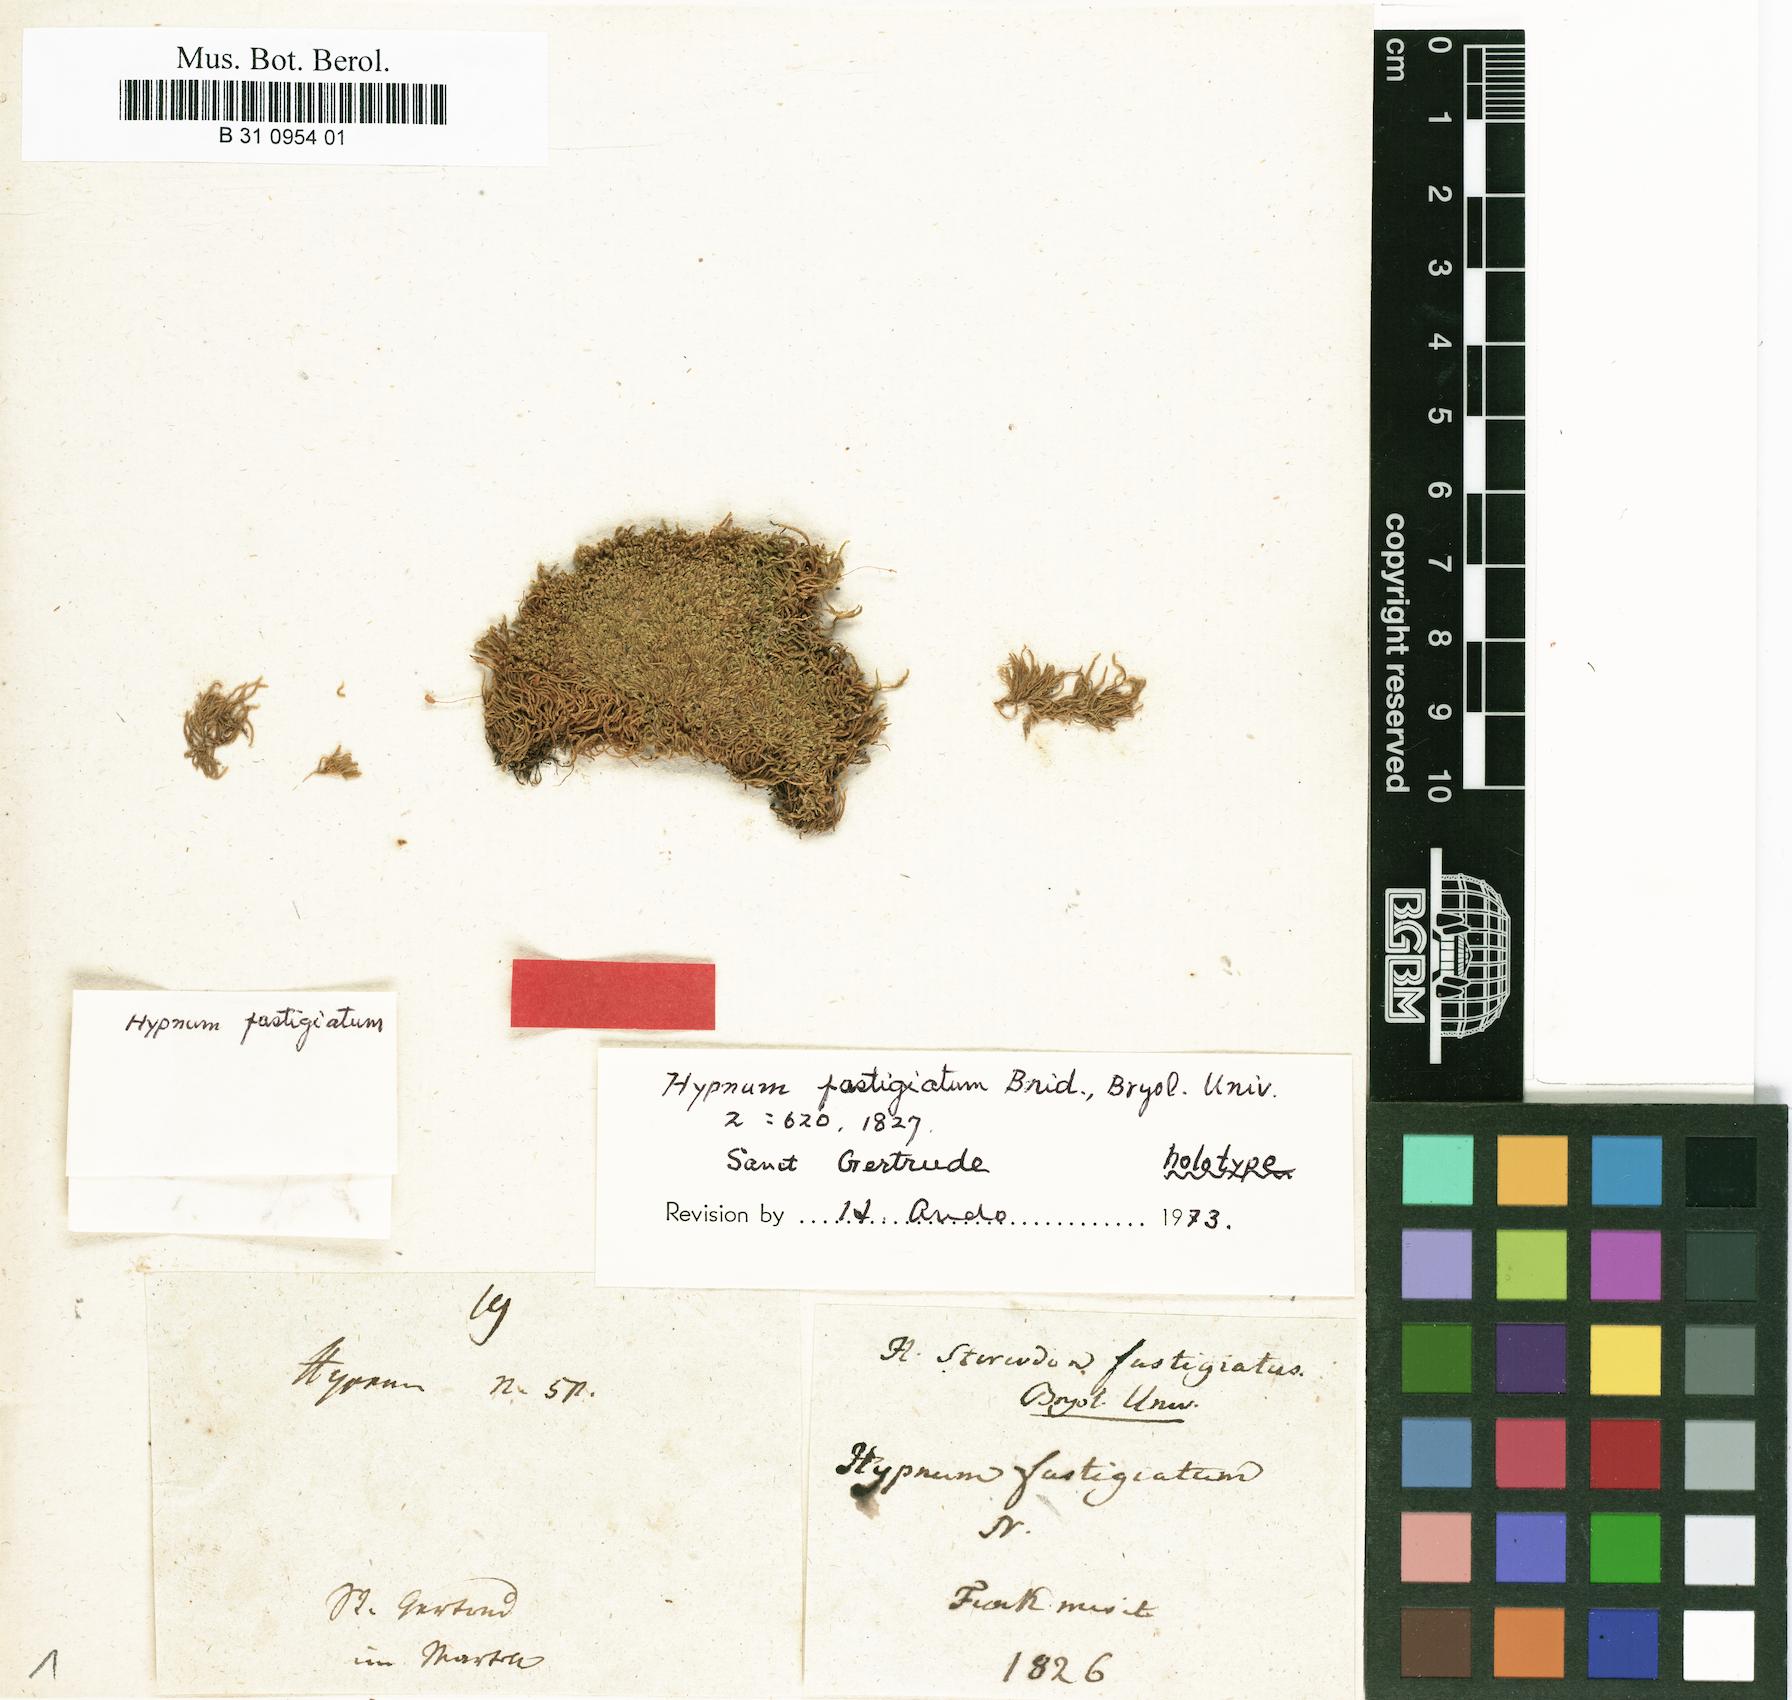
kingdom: Plantae
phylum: Bryophyta
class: Bryopsida
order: Hypnales
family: Amblystegiaceae
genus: Drepanium
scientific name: Drepanium fastigiatum
